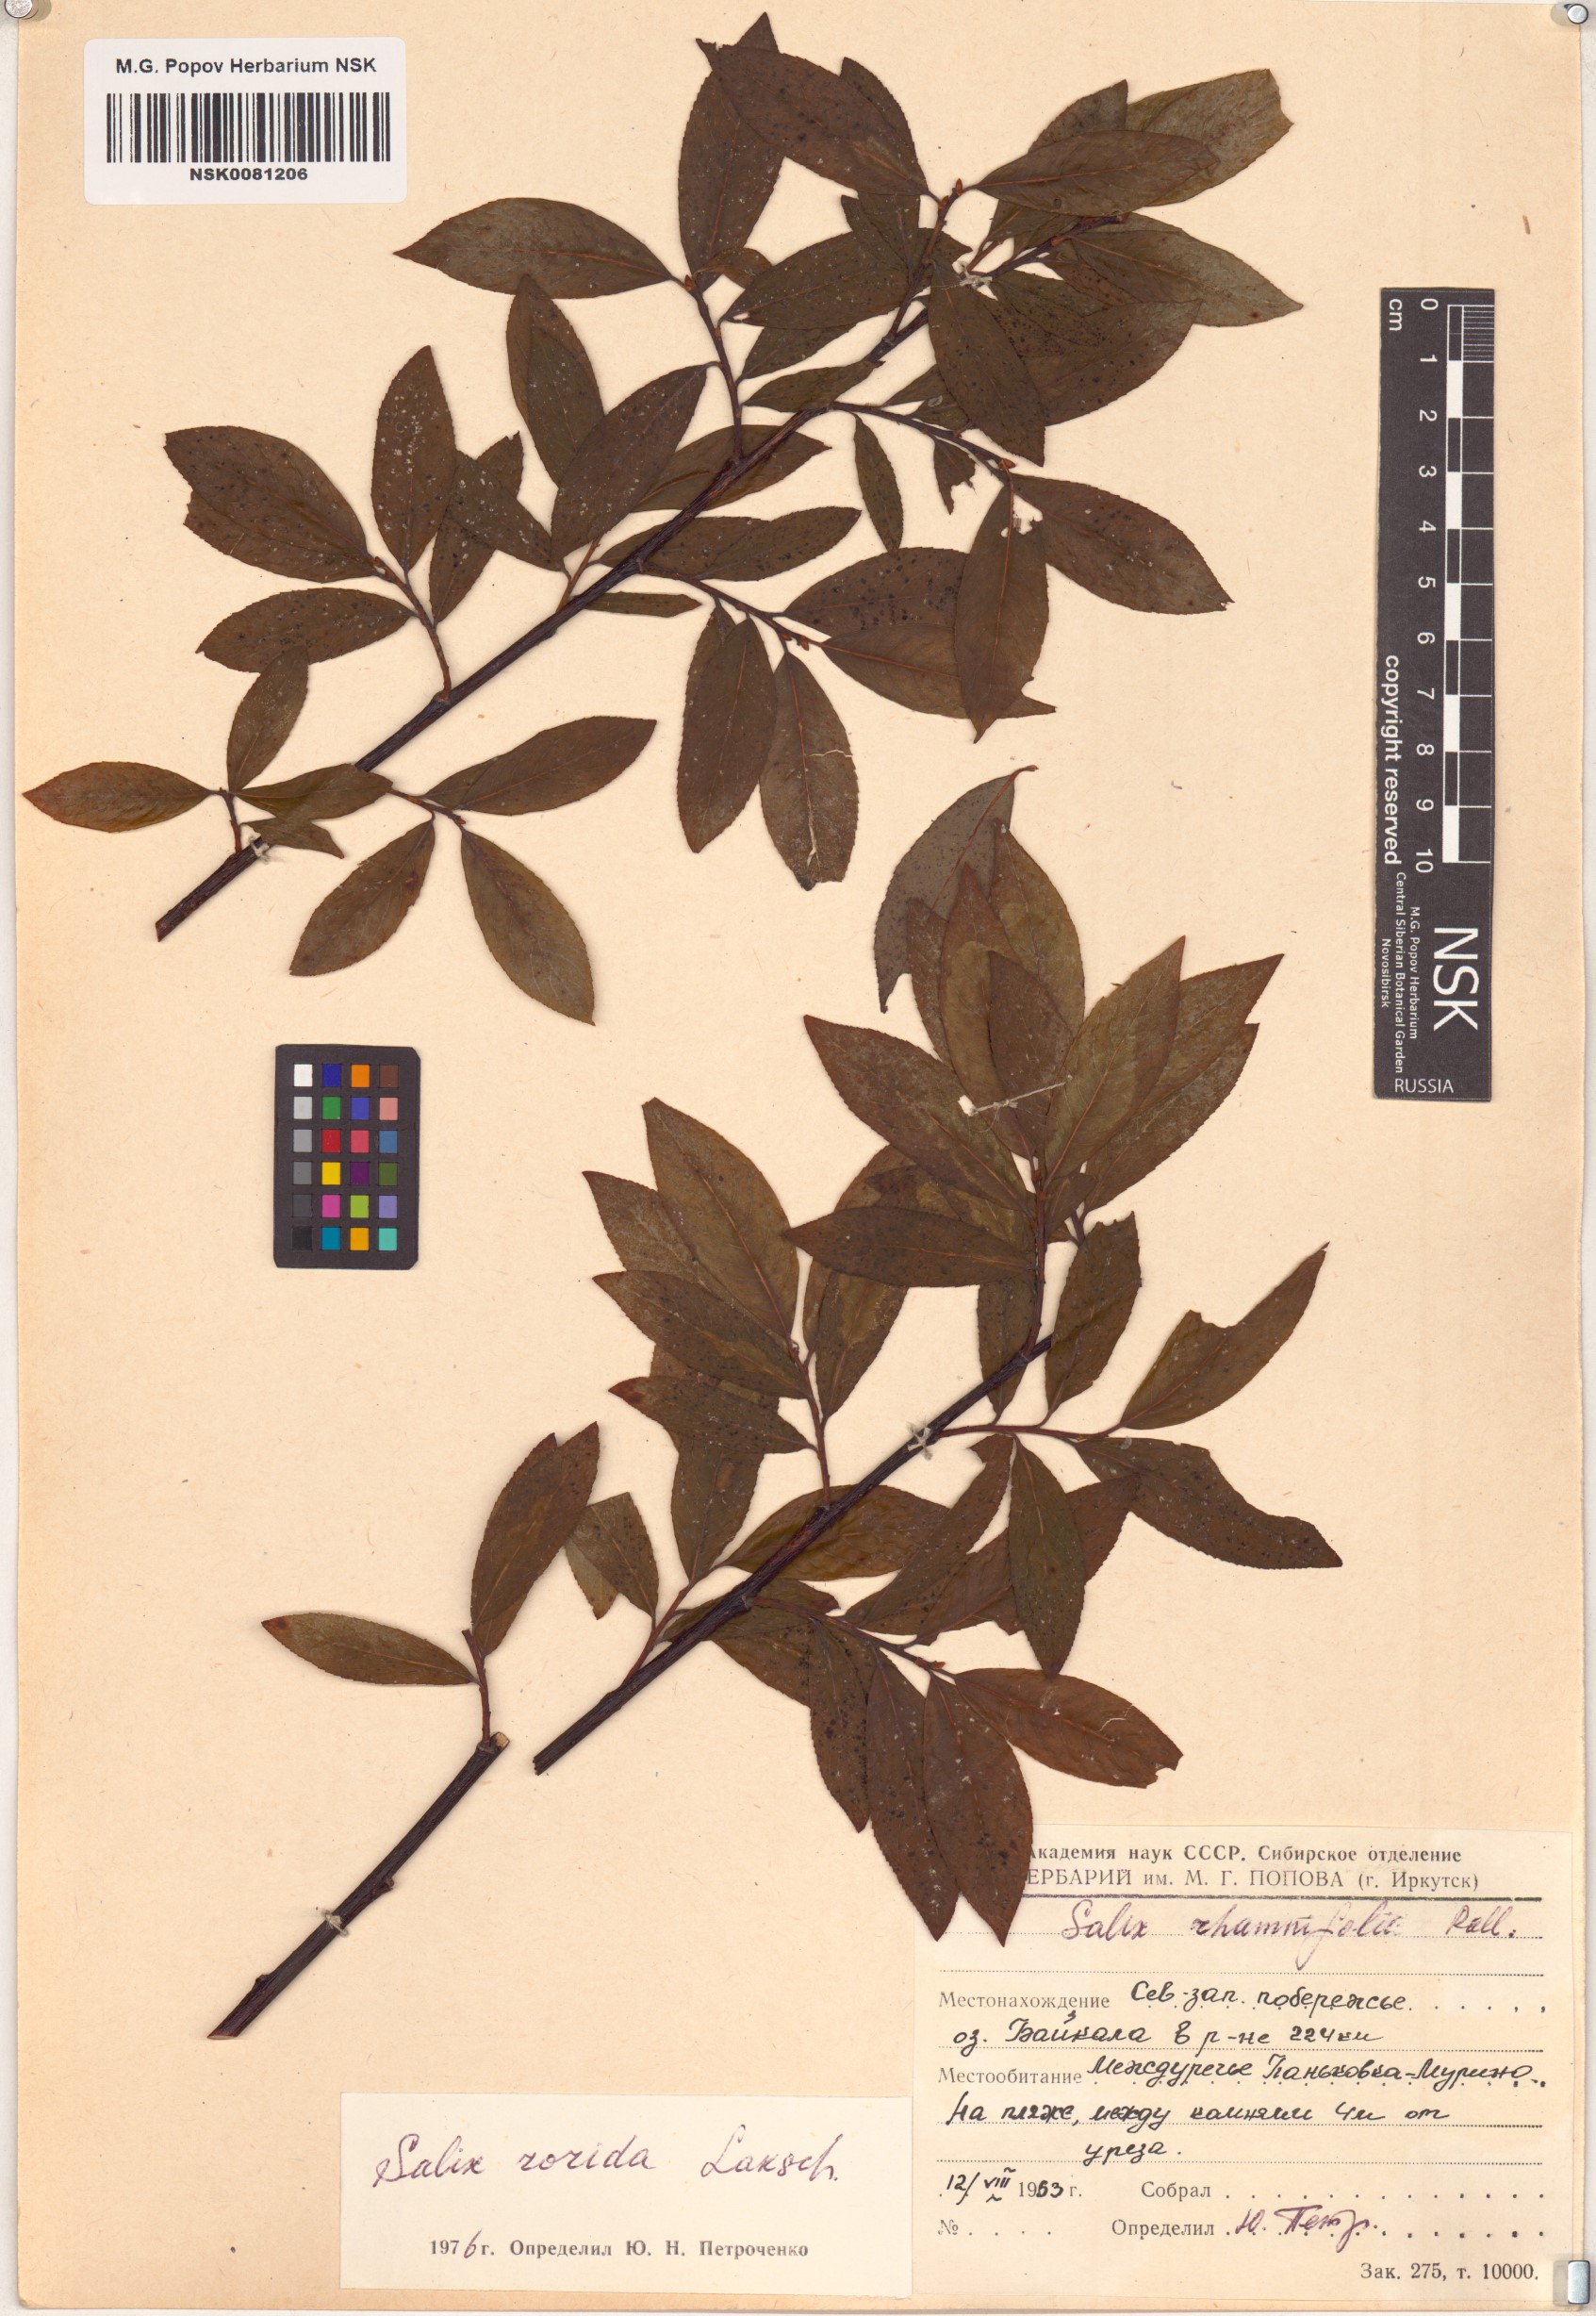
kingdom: Plantae
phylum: Tracheophyta
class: Magnoliopsida
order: Malpighiales
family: Salicaceae
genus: Salix
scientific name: Salix rorida
